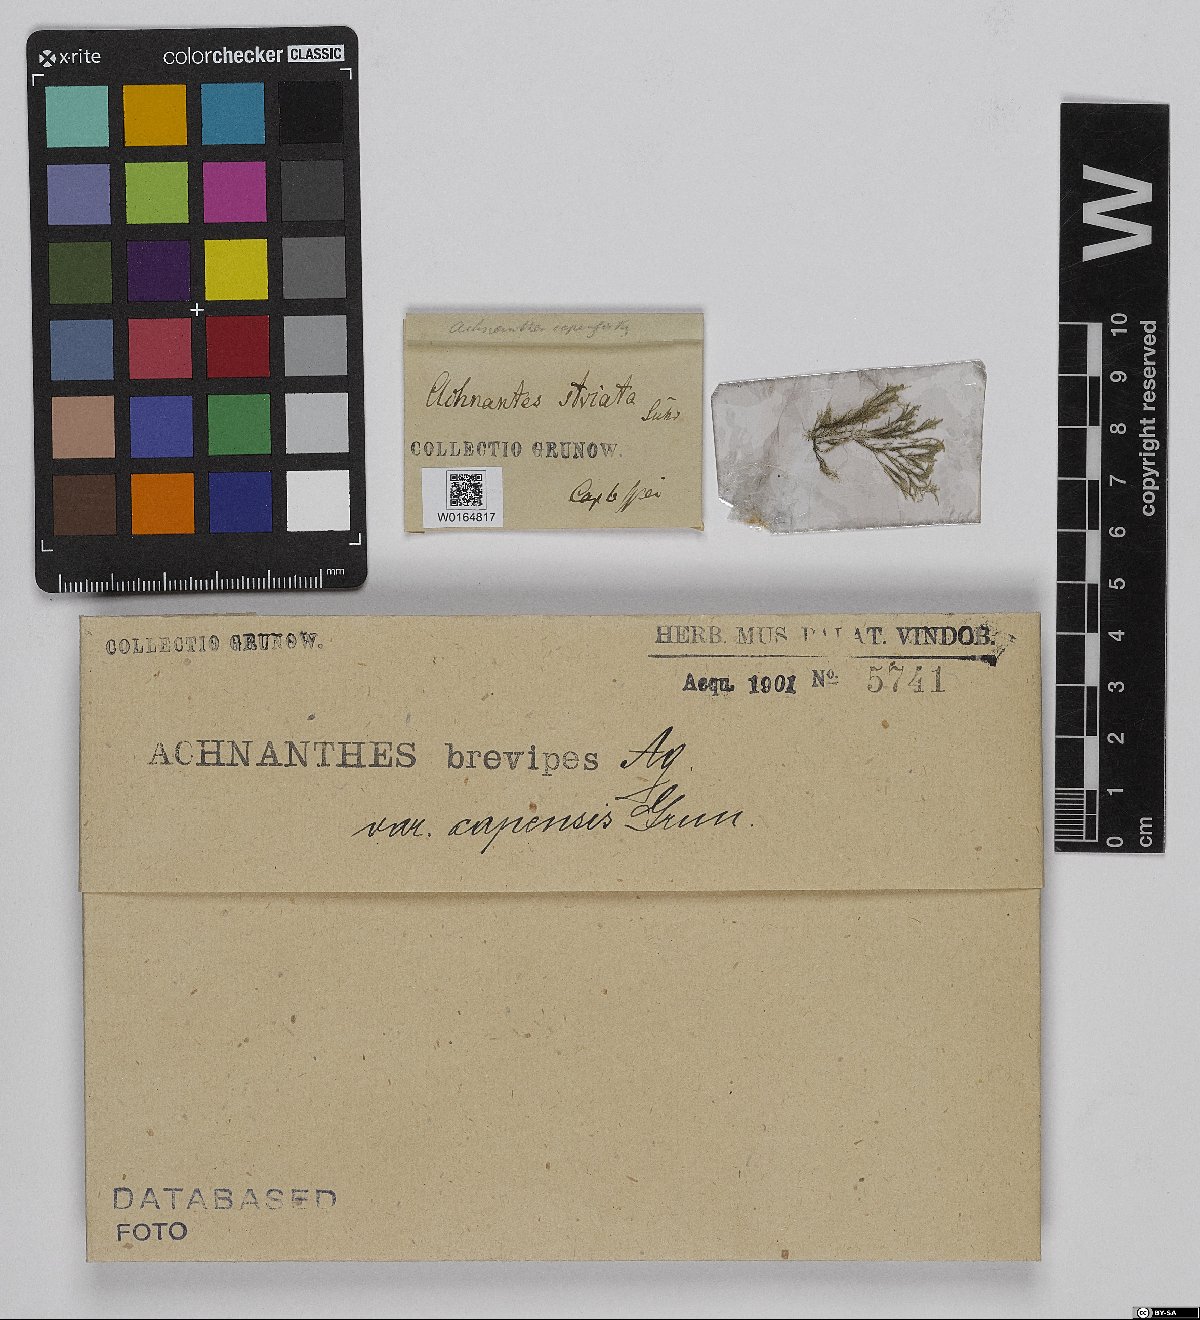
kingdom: Chromista
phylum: Ochrophyta
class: Bacillariophyceae
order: Achnanthales
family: Achnanthaceae
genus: Achnanthes
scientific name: Achnanthes capensis
